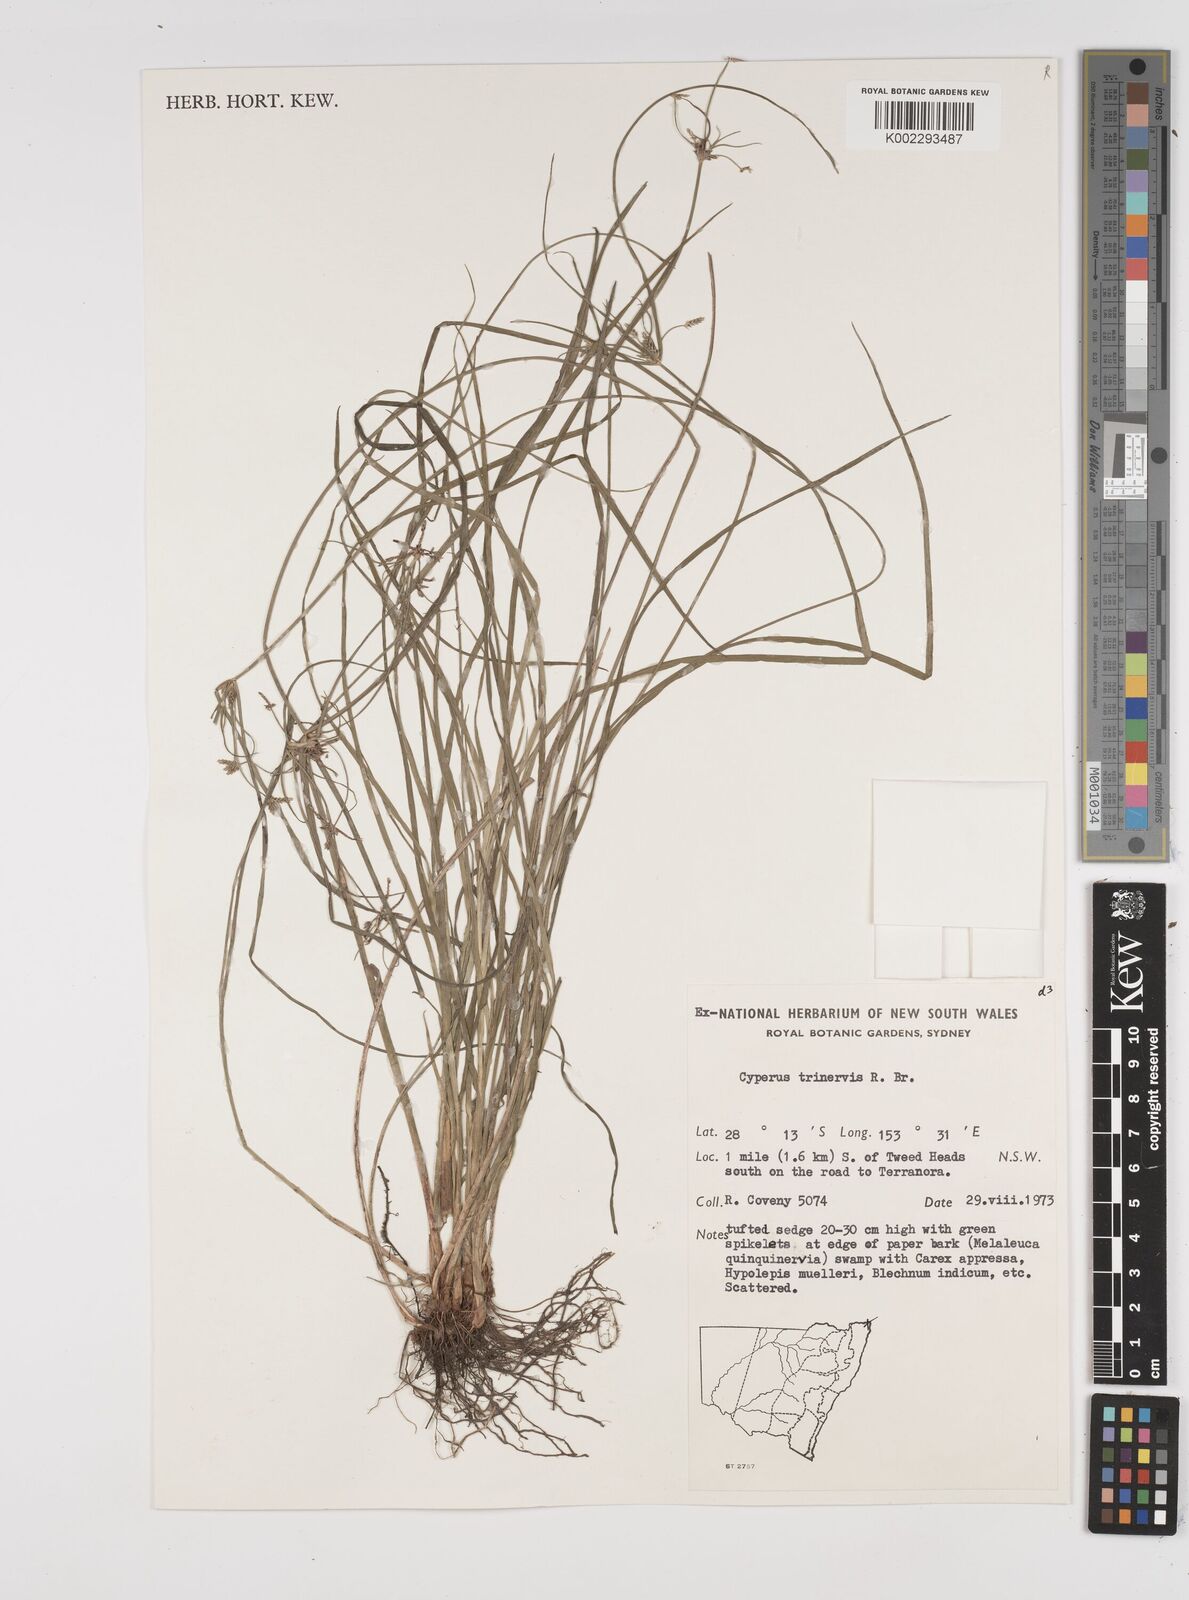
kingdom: Plantae
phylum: Tracheophyta
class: Liliopsida
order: Poales
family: Cyperaceae
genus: Cyperus
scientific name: Cyperus trinervis
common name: Australian flatsedge
